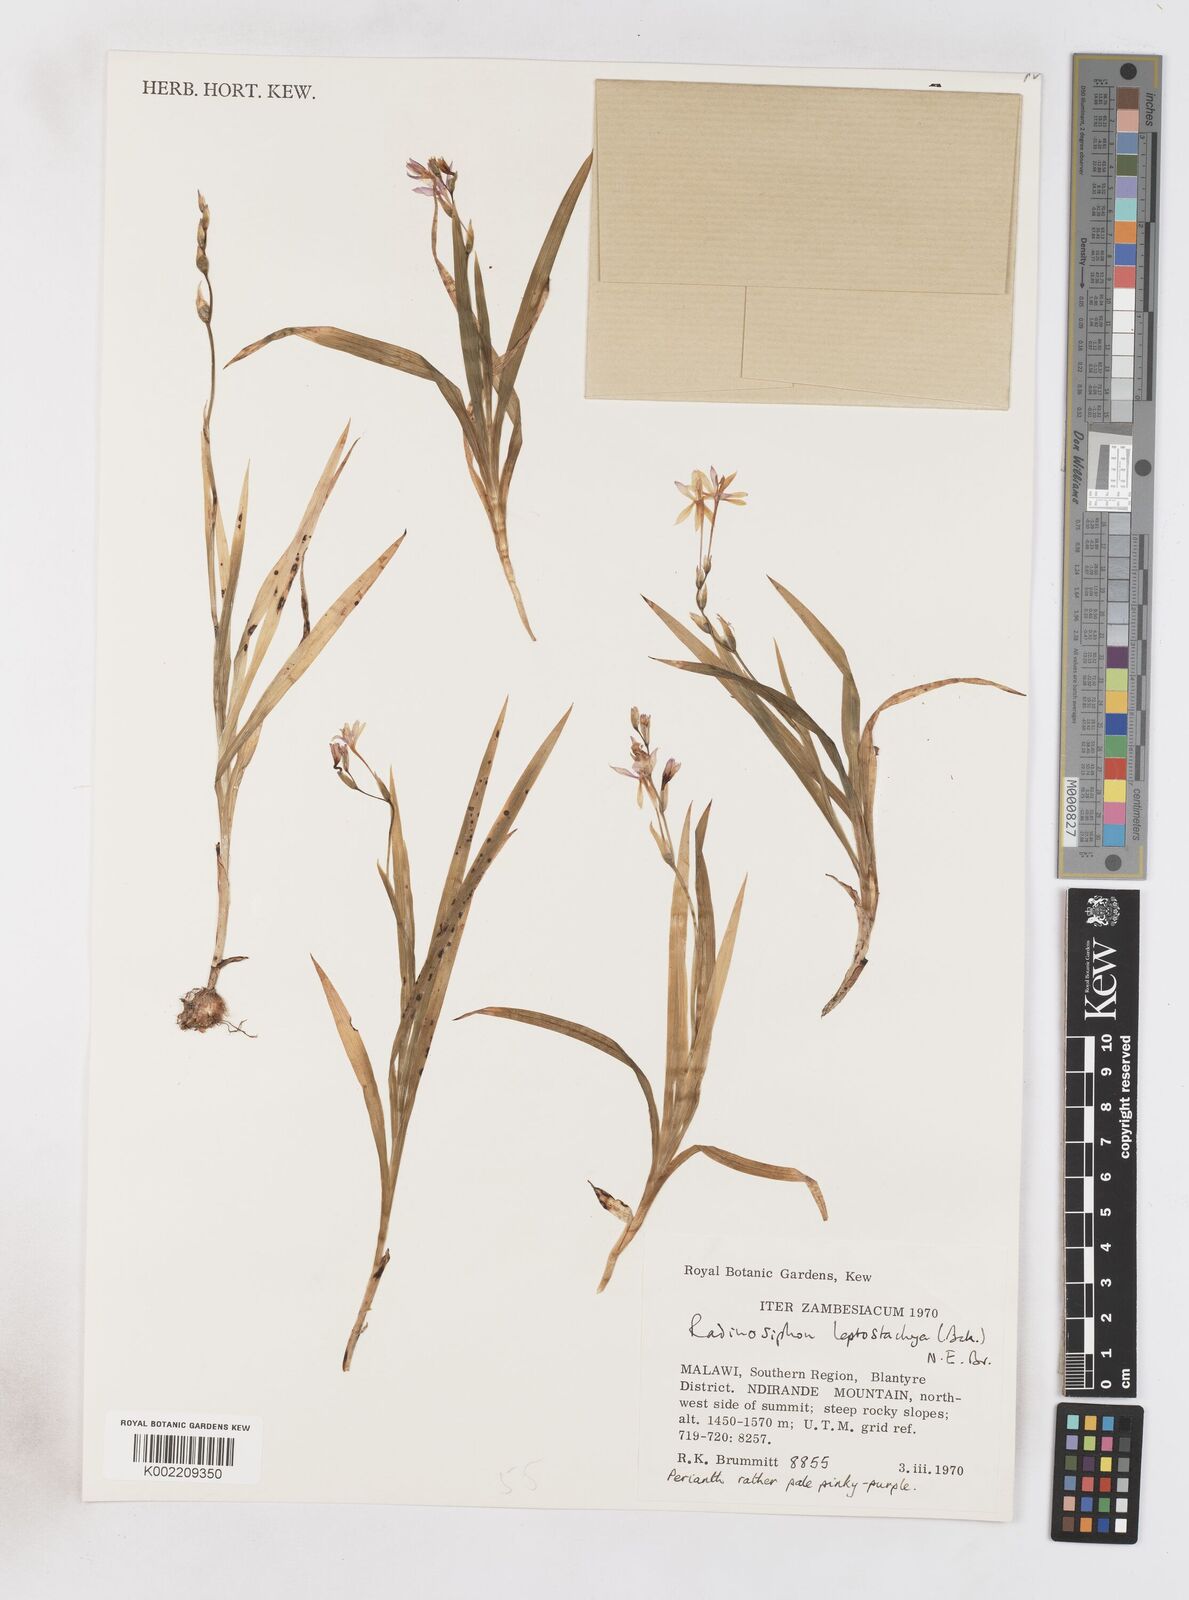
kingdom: Plantae
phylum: Tracheophyta
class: Liliopsida
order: Asparagales
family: Iridaceae
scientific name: Iridaceae
